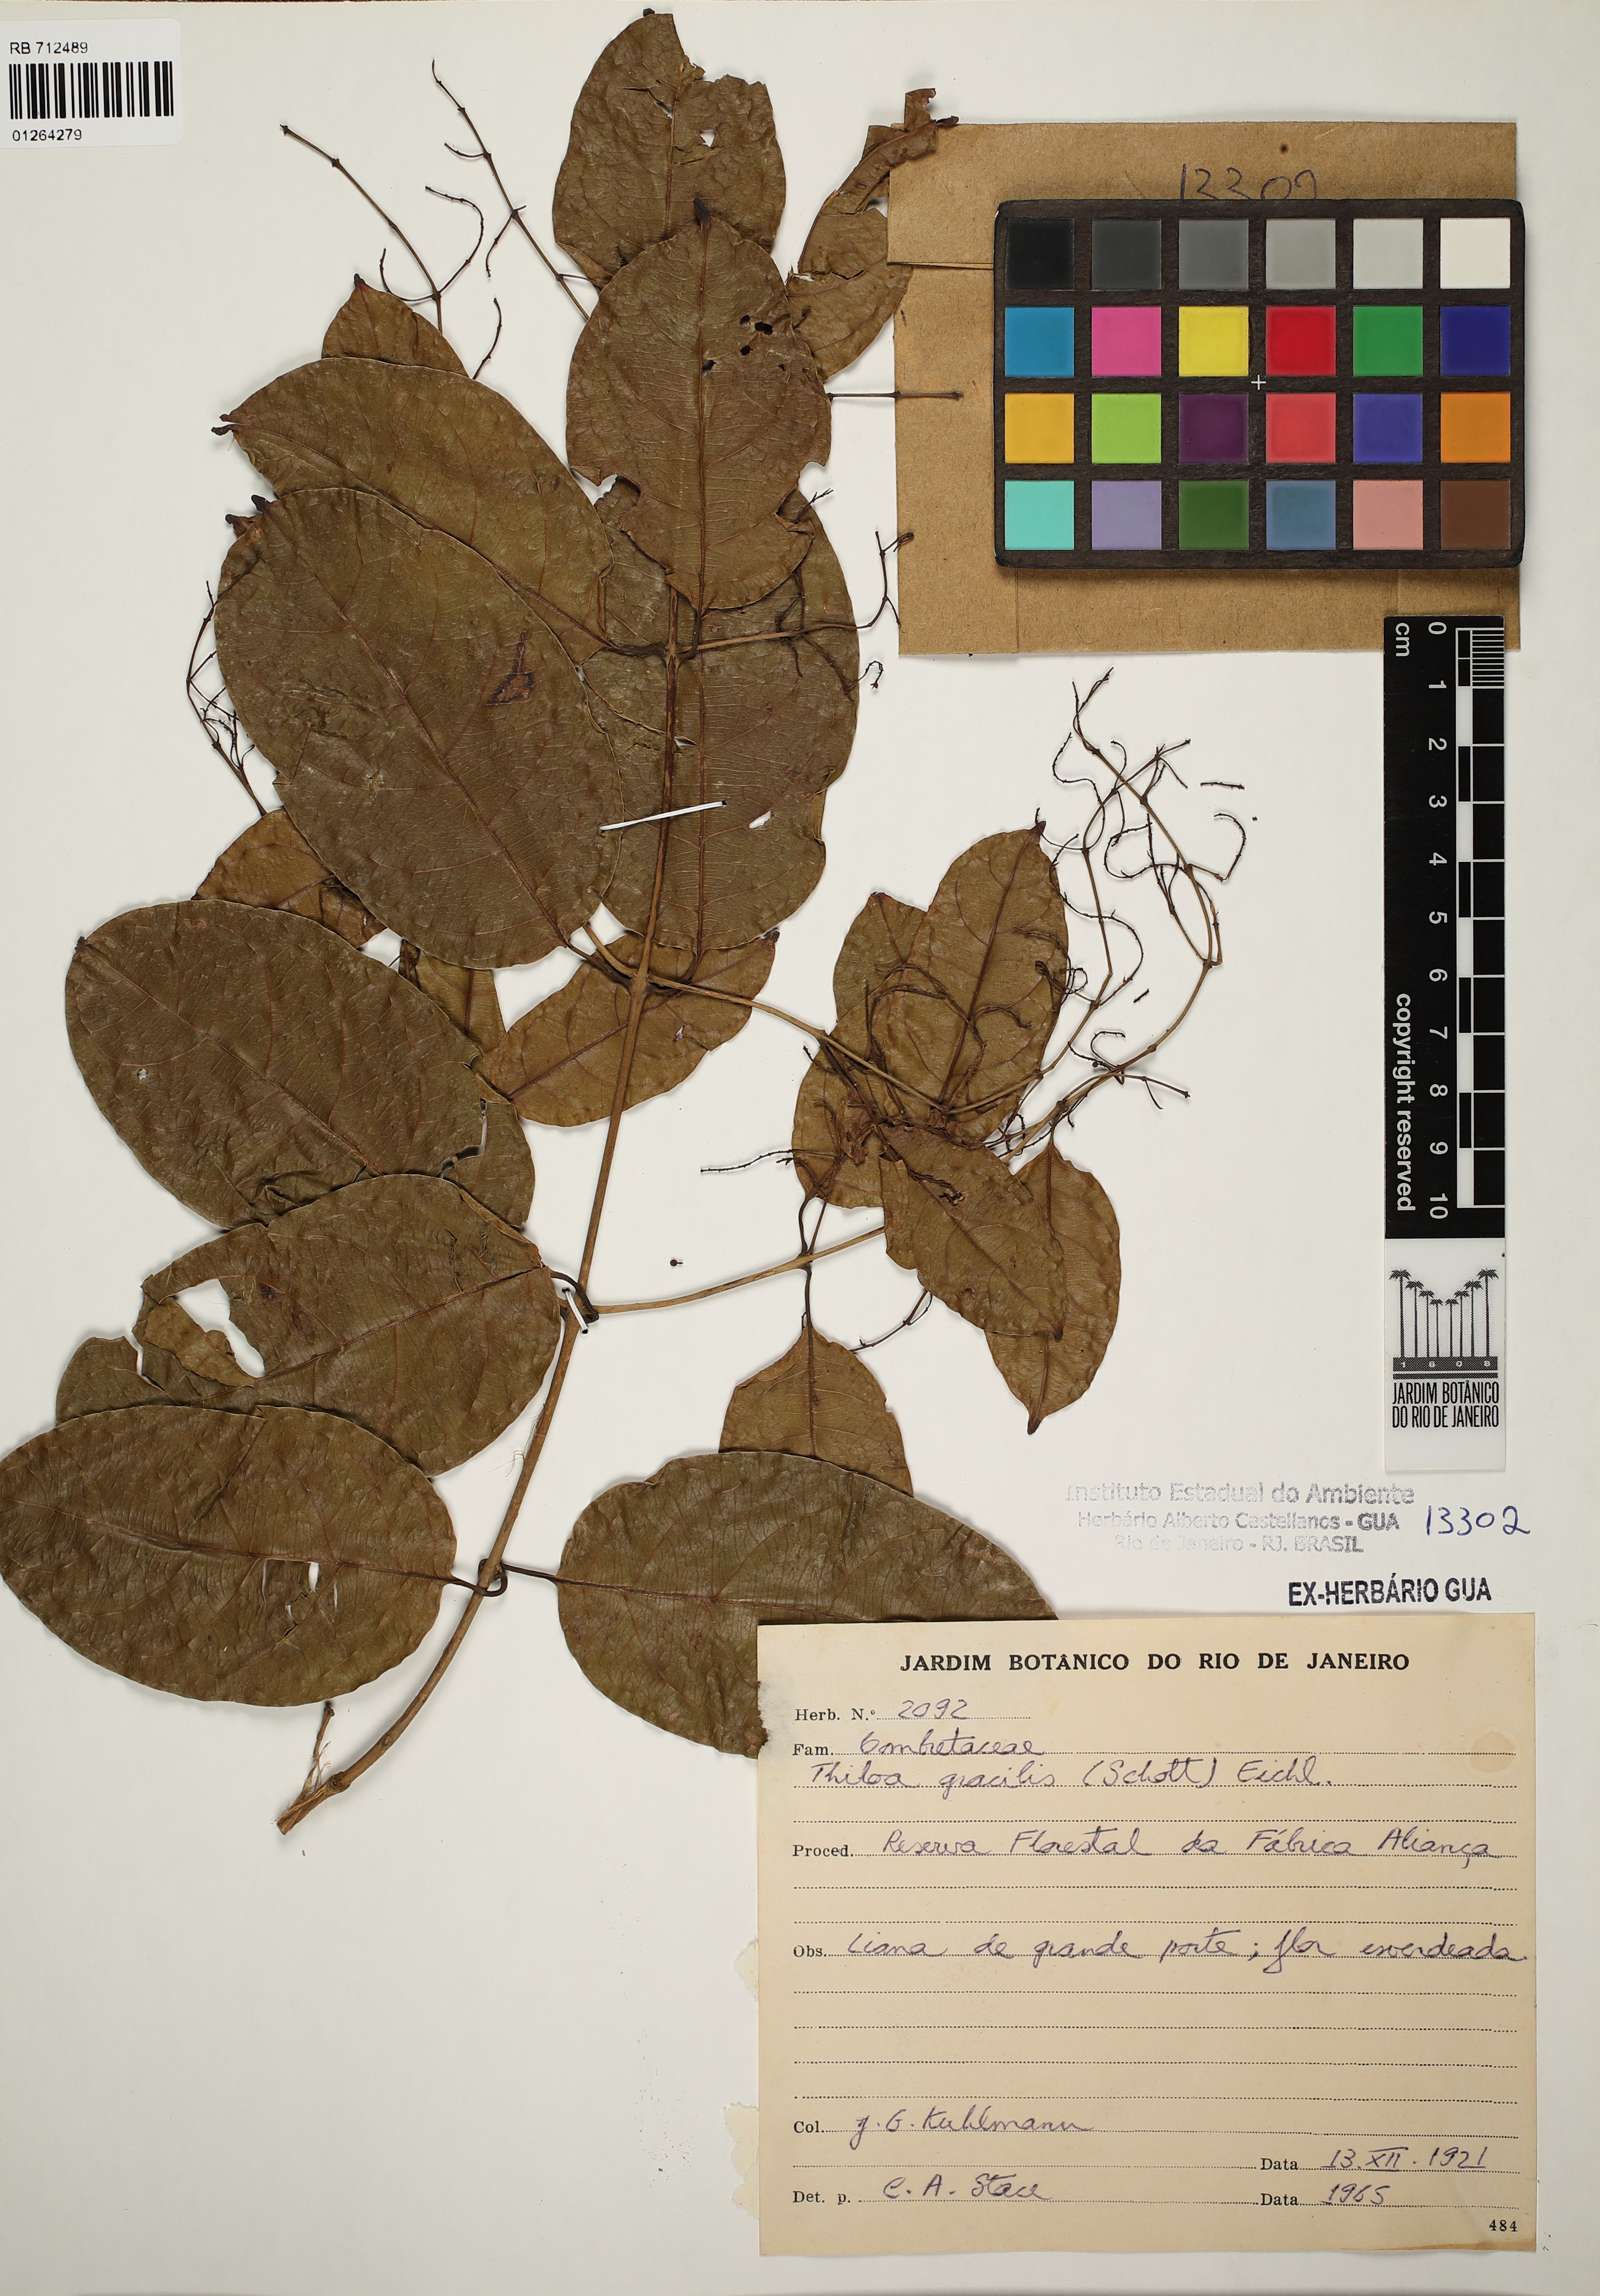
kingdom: Plantae
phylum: Tracheophyta
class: Magnoliopsida
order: Myrtales
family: Combretaceae
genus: Combretum
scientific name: Combretum gracile
